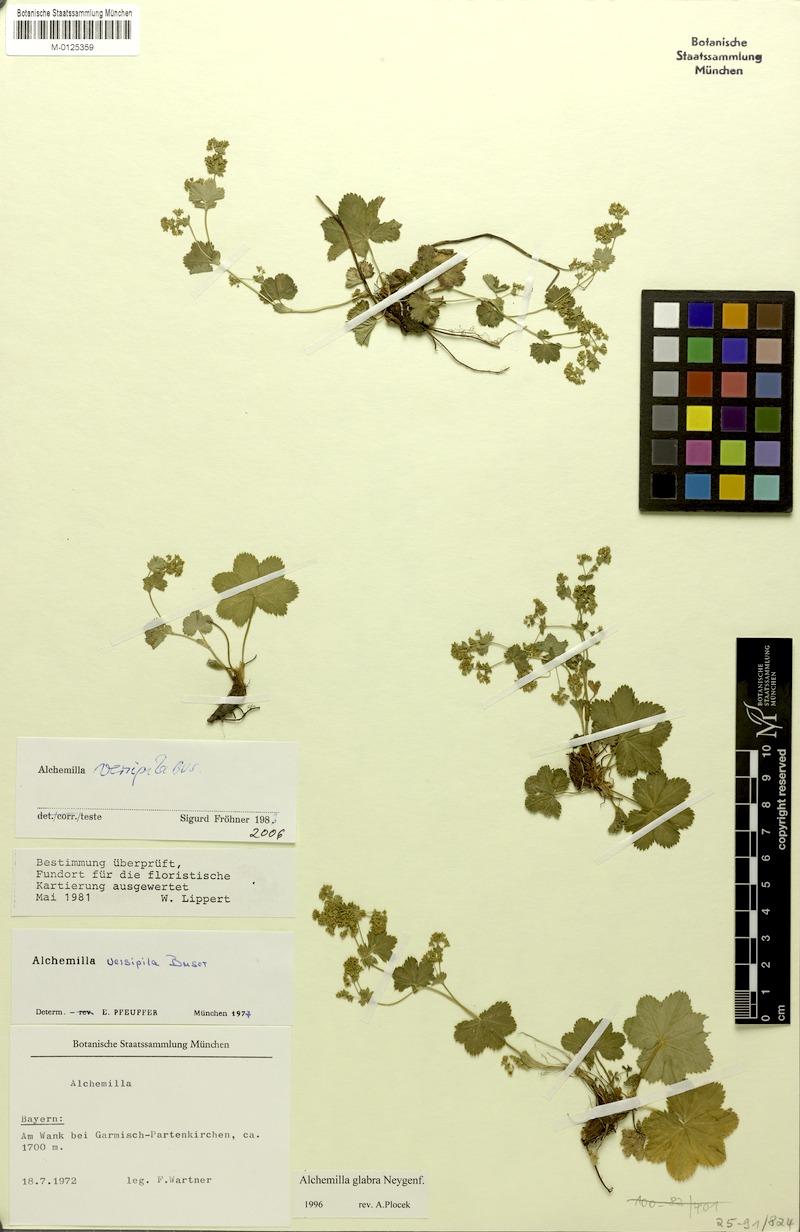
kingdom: Plantae
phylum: Tracheophyta
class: Magnoliopsida
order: Rosales
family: Rosaceae
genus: Alchemilla
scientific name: Alchemilla versipila
